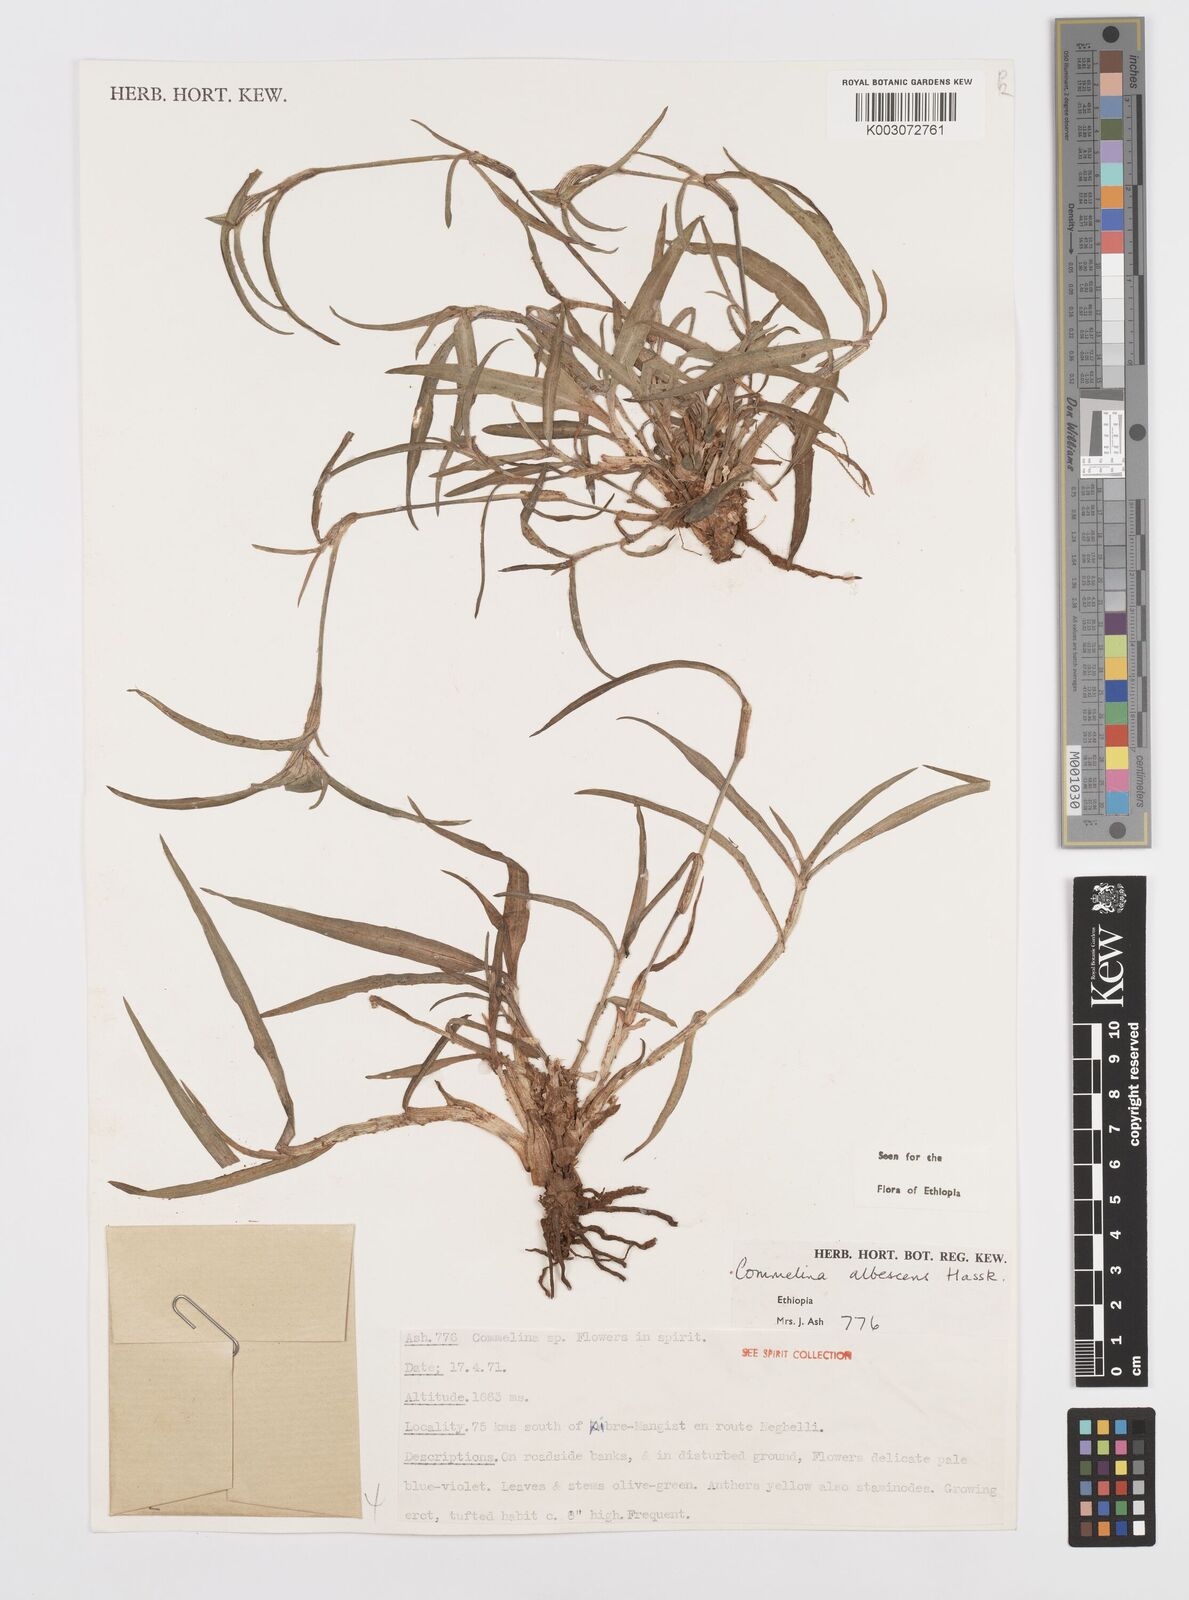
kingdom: Plantae
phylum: Tracheophyta
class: Liliopsida
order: Commelinales
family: Commelinaceae
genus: Commelina
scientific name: Commelina albescens
